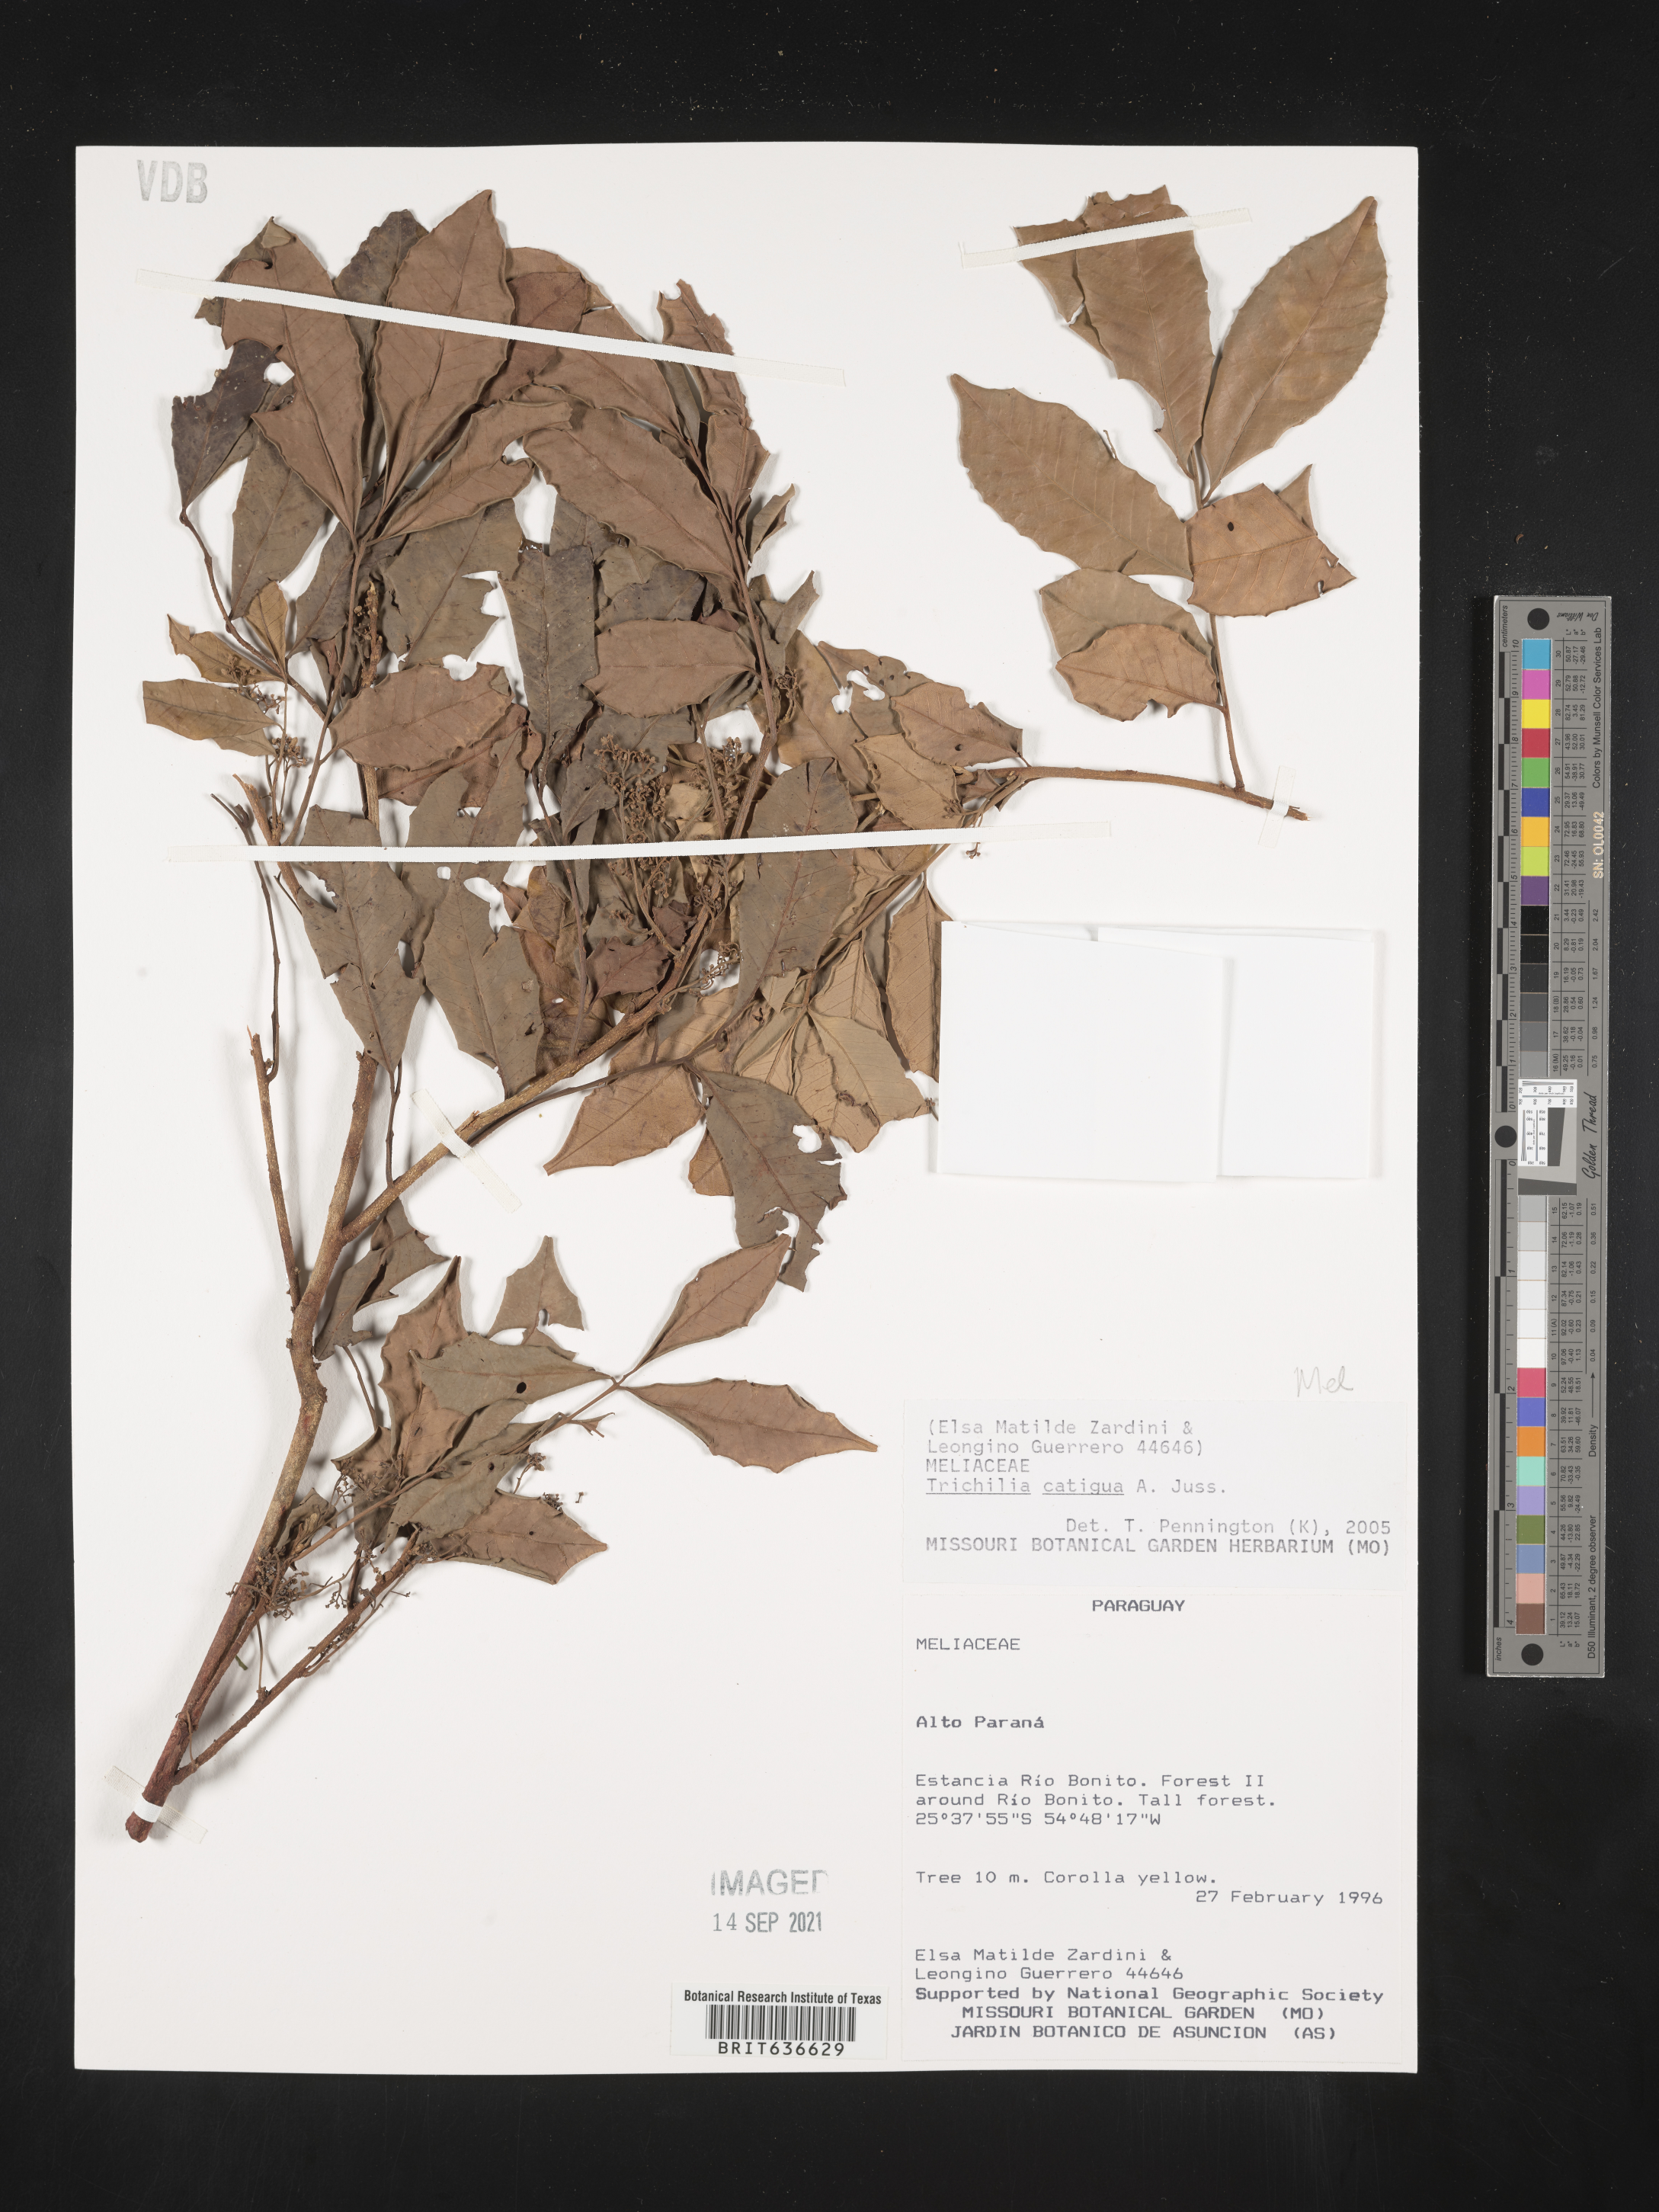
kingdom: Plantae
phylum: Tracheophyta
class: Magnoliopsida
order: Sapindales
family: Meliaceae
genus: Trichilia
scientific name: Trichilia
